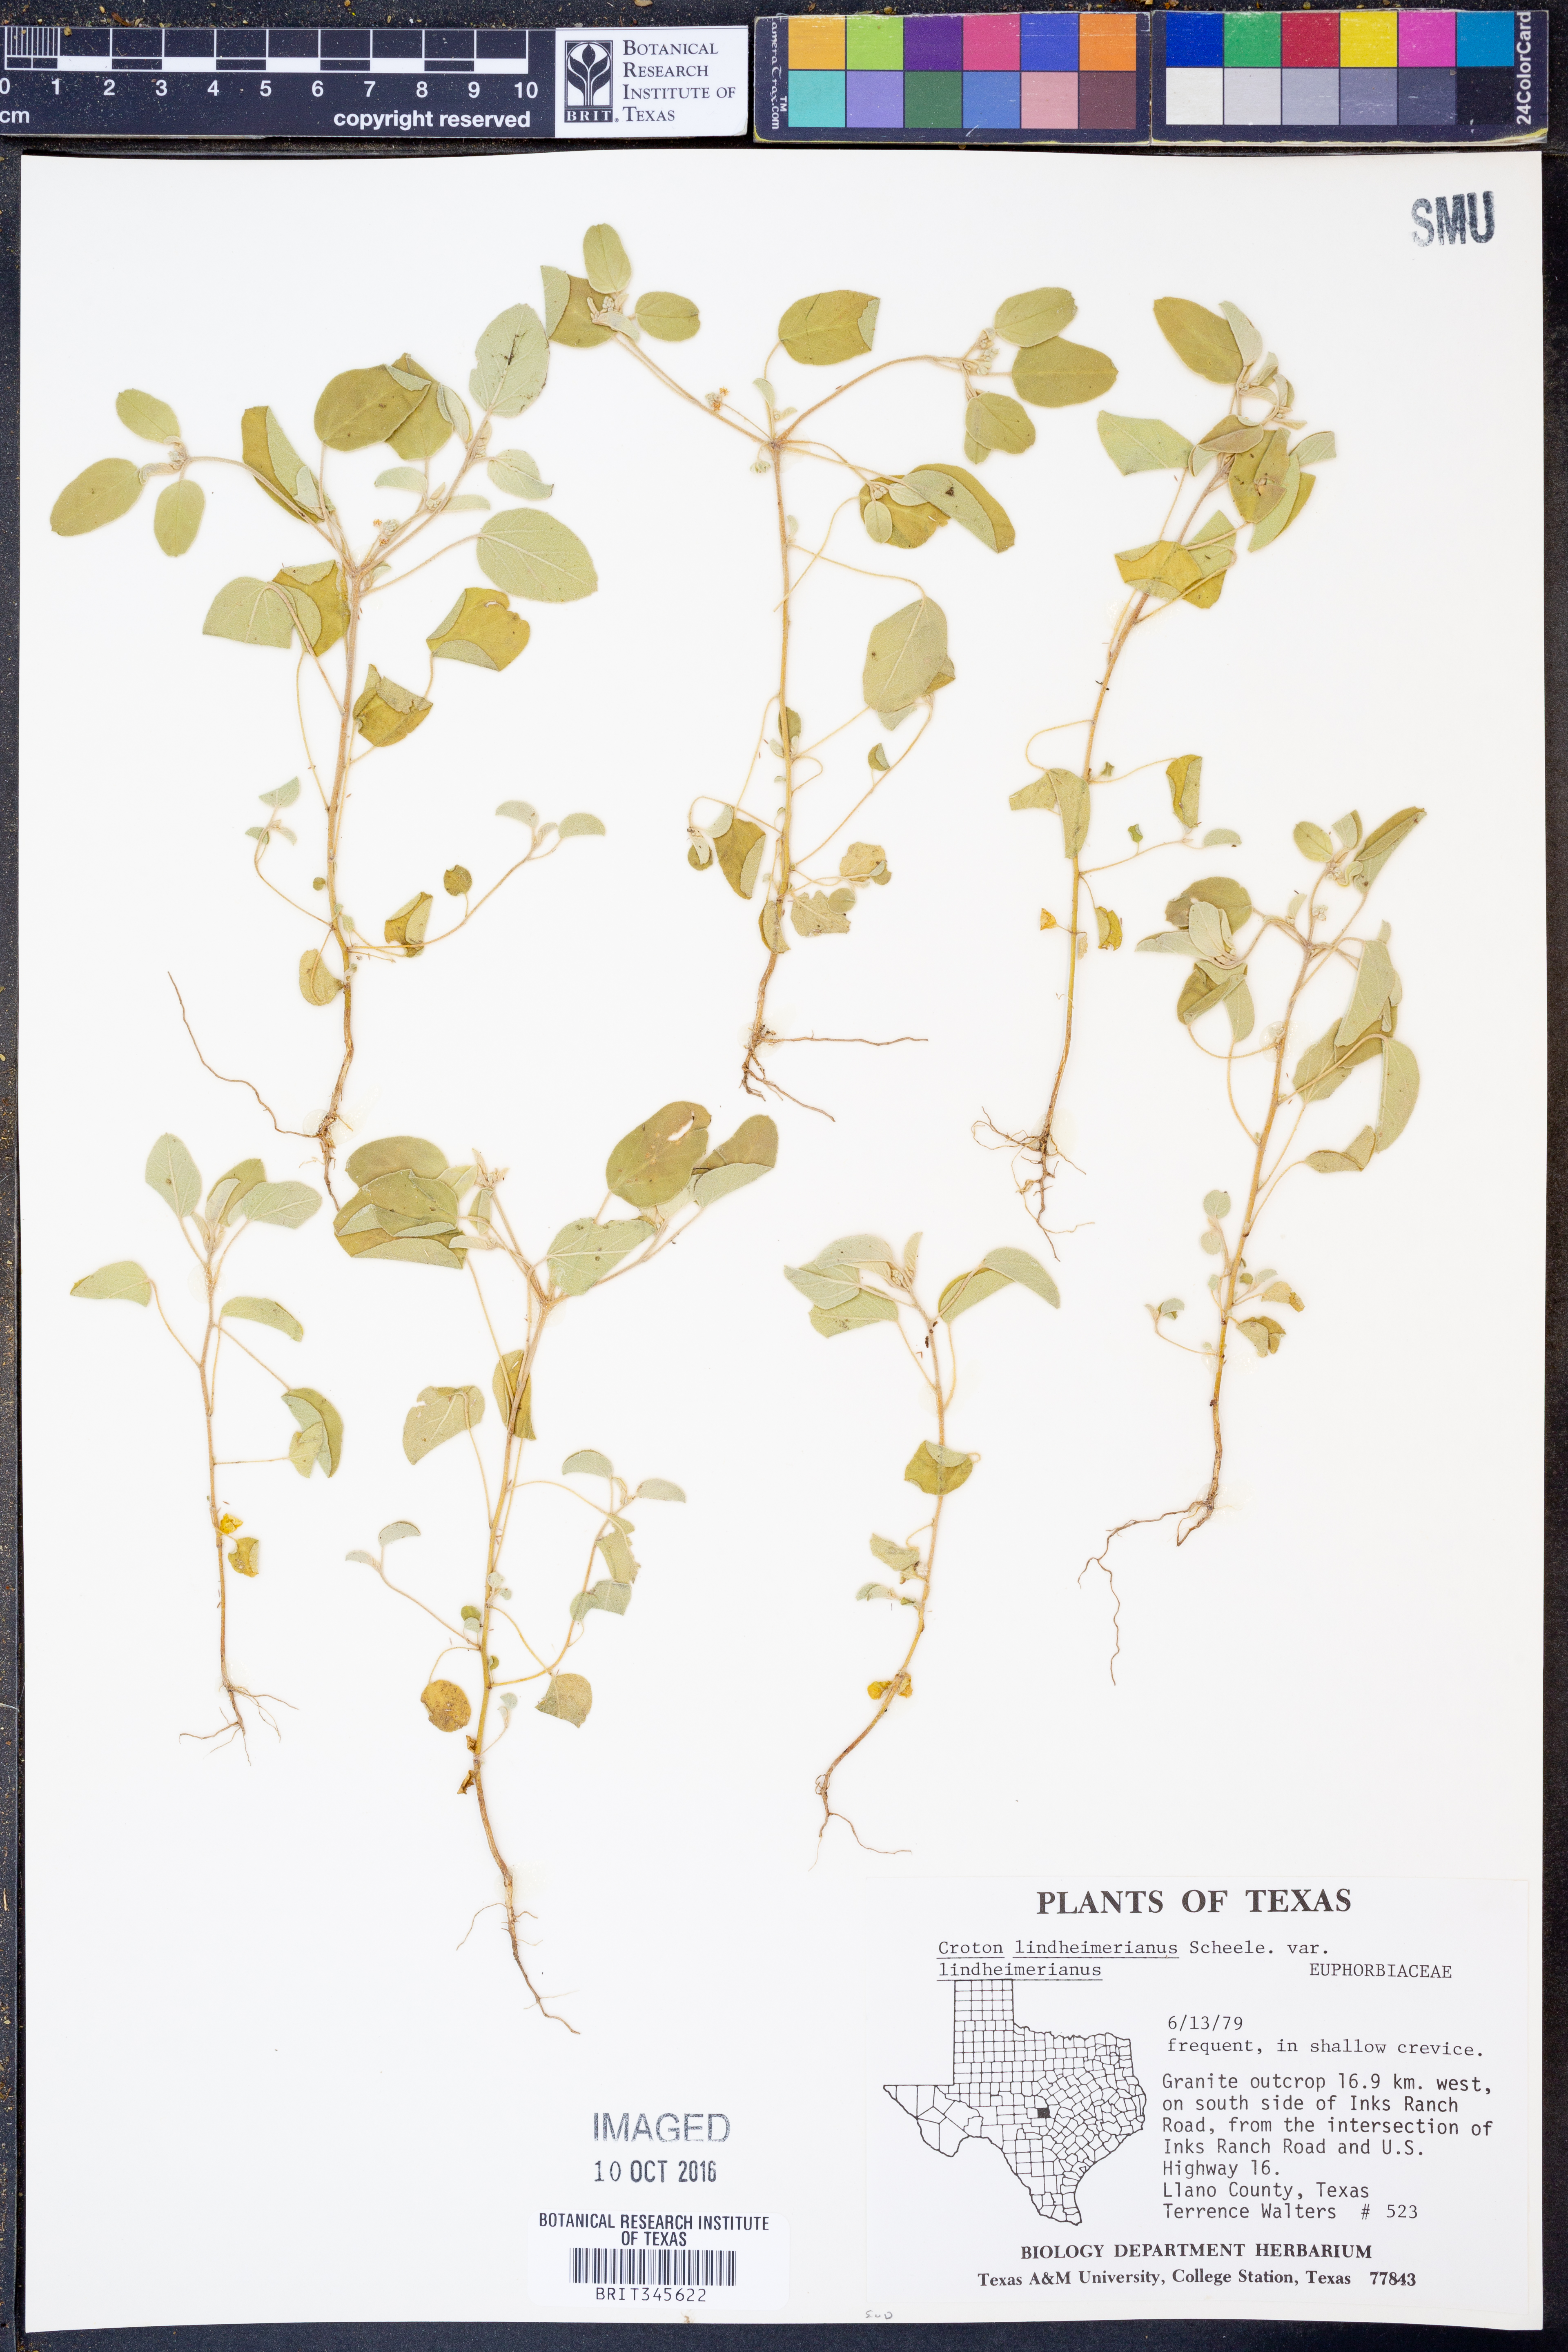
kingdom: Plantae
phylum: Tracheophyta
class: Magnoliopsida
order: Malpighiales
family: Euphorbiaceae
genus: Croton
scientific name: Croton lindheimerianus
